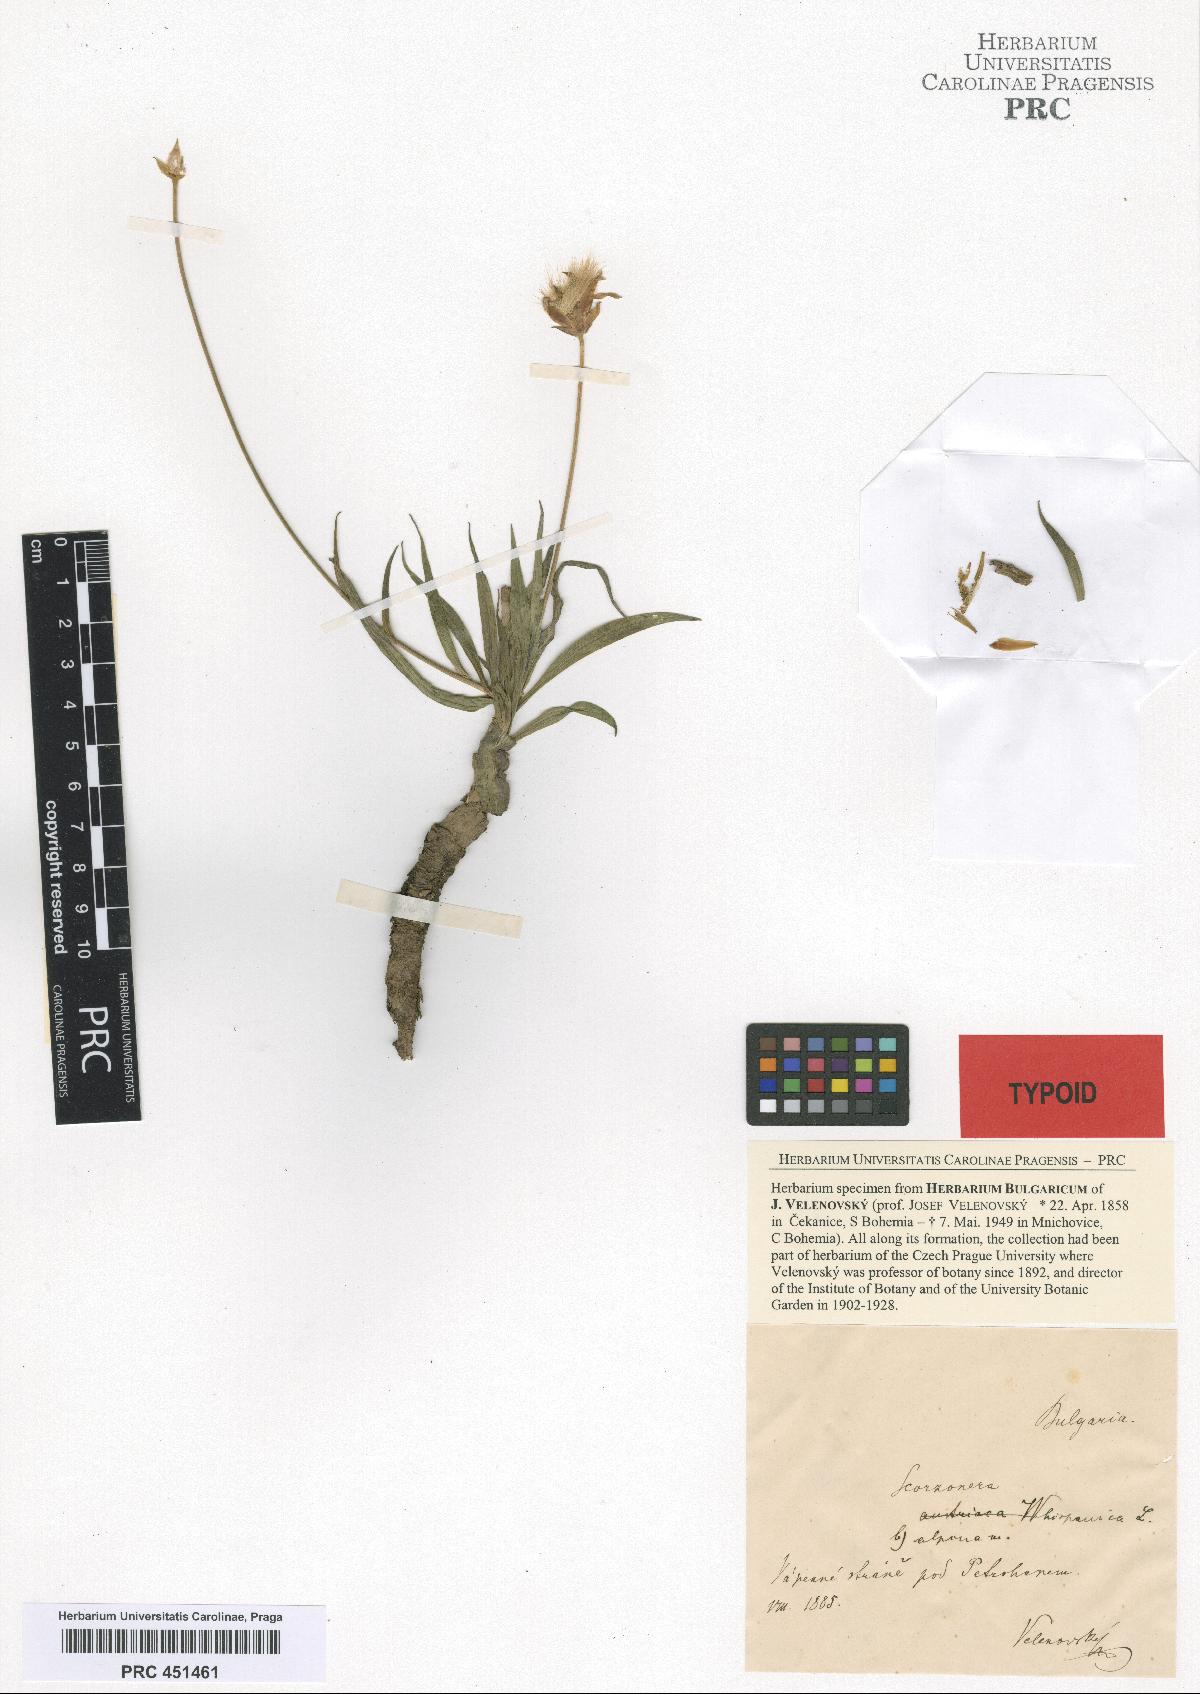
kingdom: Plantae
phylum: Tracheophyta
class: Magnoliopsida
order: Asterales
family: Asteraceae
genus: Pseudopodospermum
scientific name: Pseudopodospermum hispanicum
